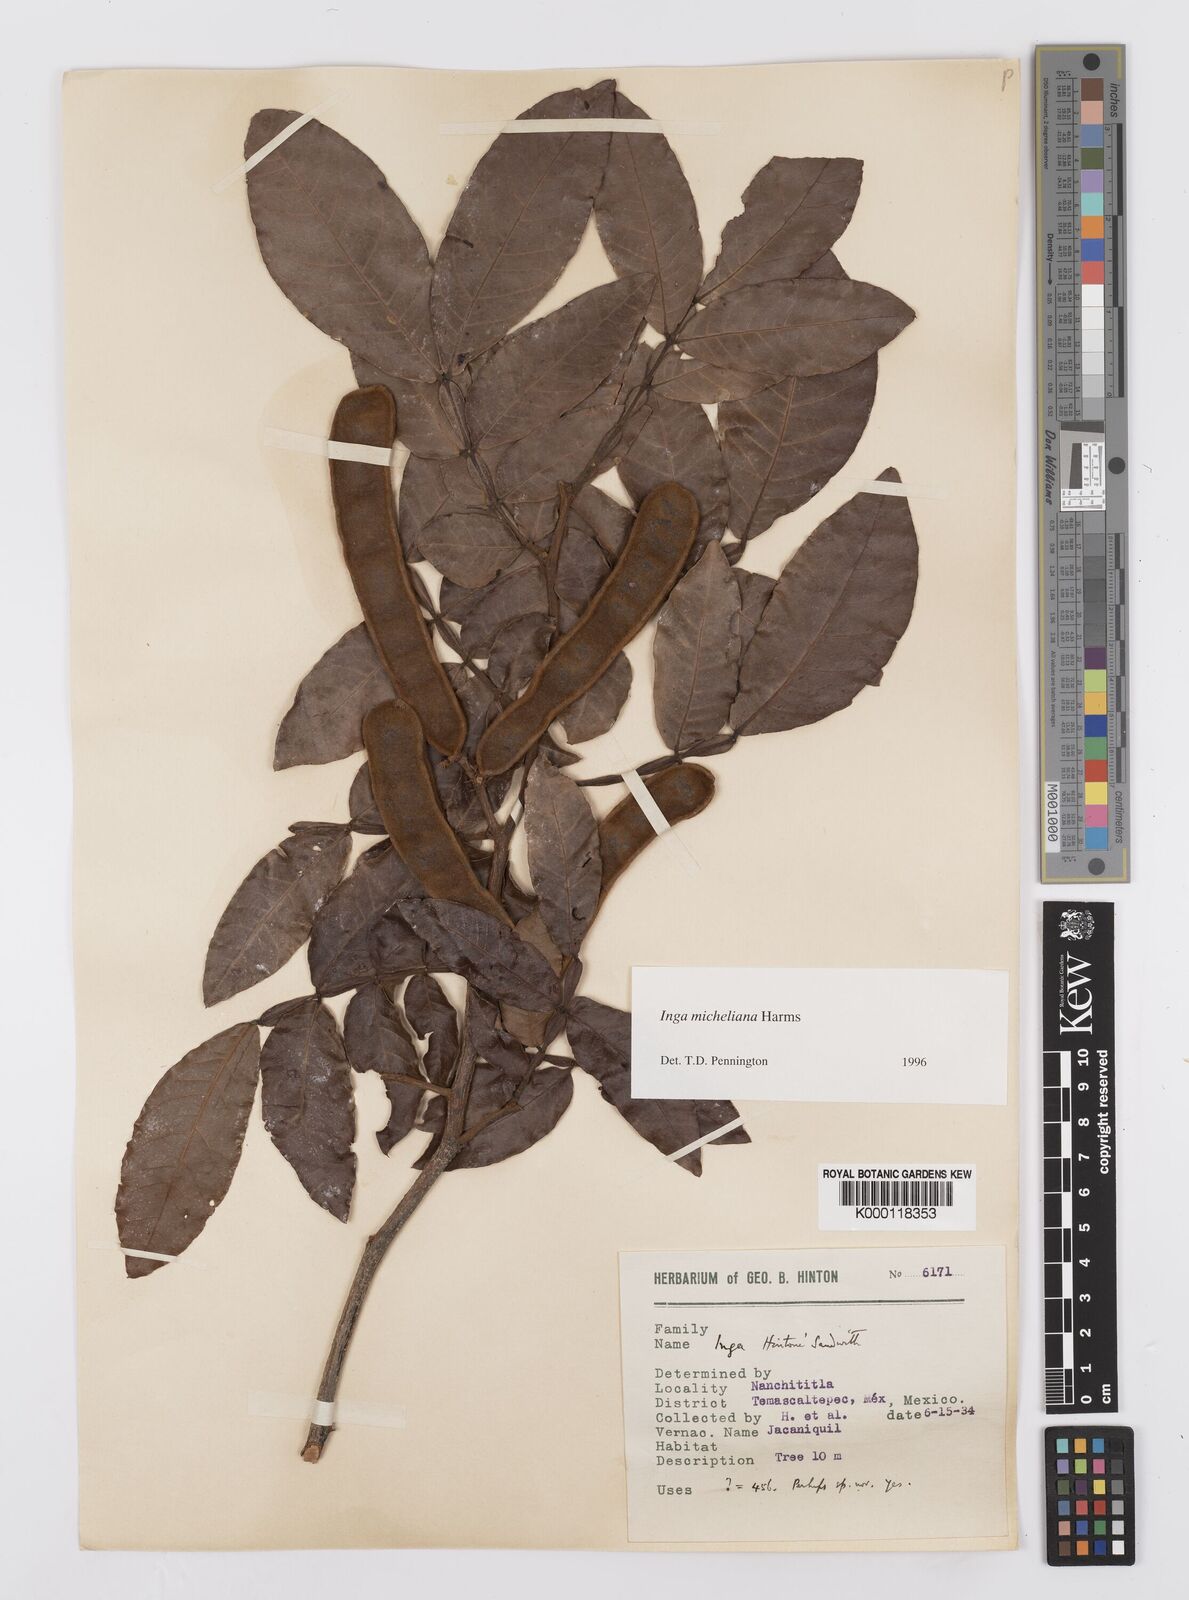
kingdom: Plantae
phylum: Tracheophyta
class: Magnoliopsida
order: Fabales
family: Fabaceae
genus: Inga
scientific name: Inga flexuosa
